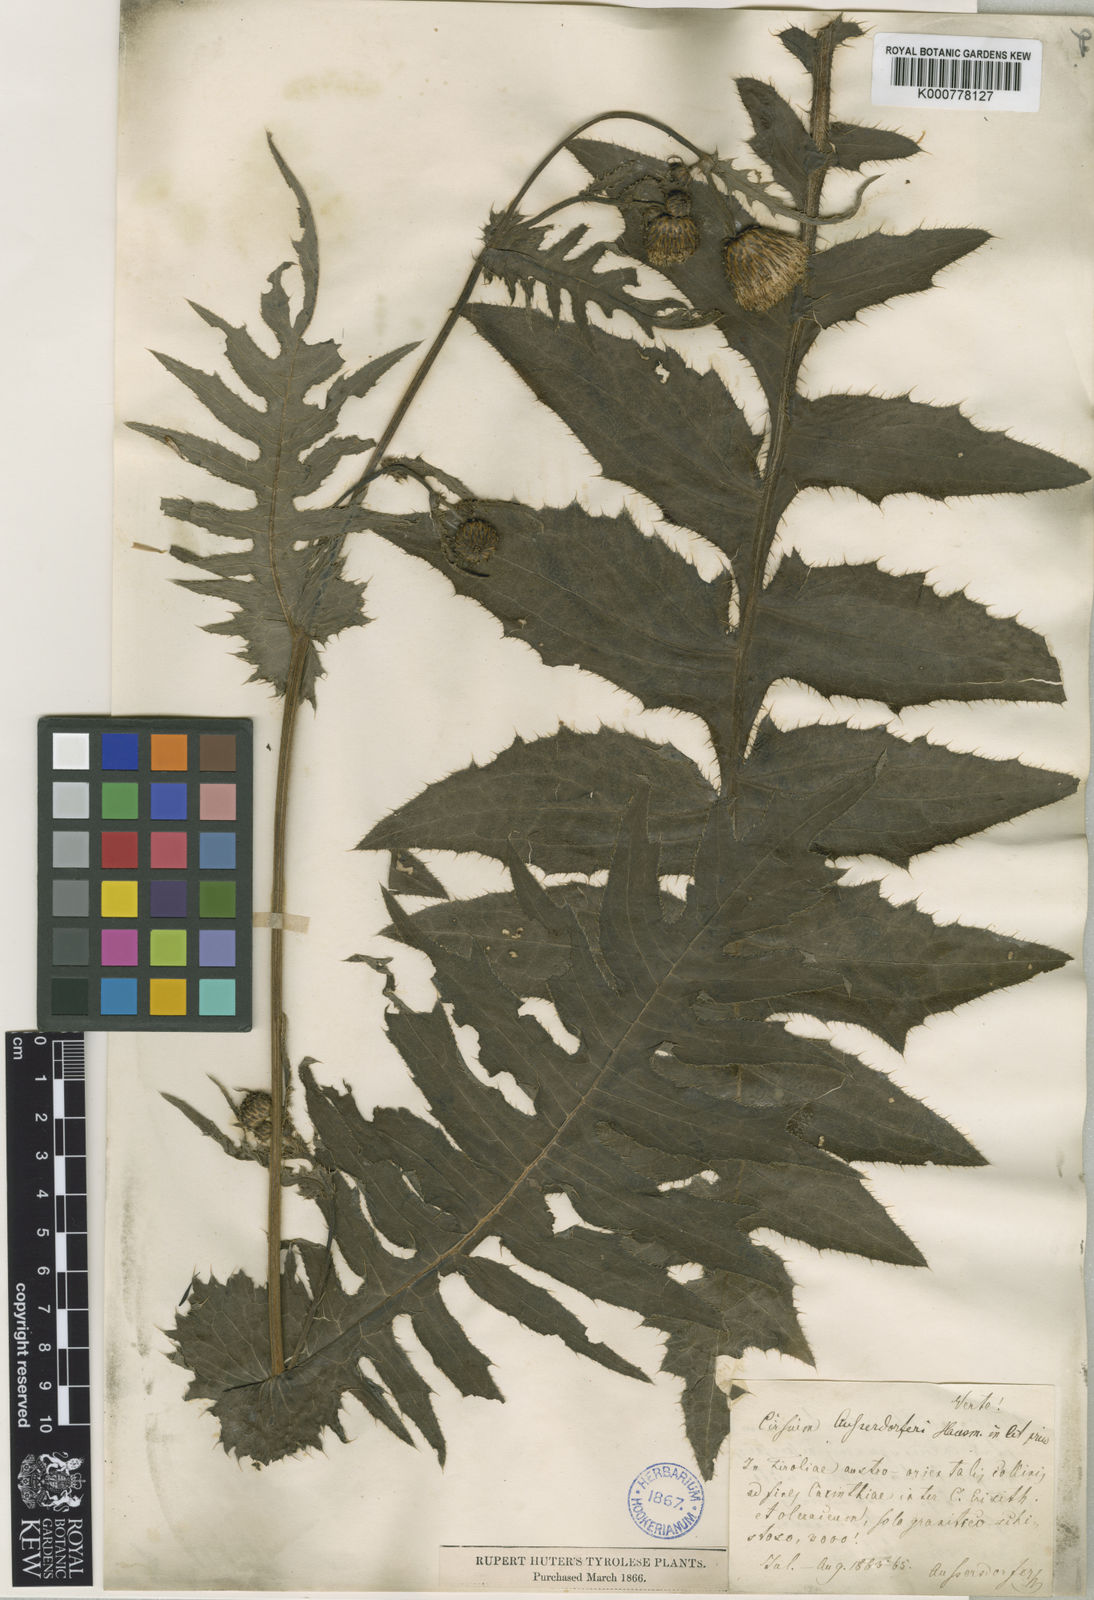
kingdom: Plantae
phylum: Tracheophyta
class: Magnoliopsida
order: Asterales
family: Asteraceae
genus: Cirsium
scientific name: Cirsium palustre
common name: Marsh thistle
